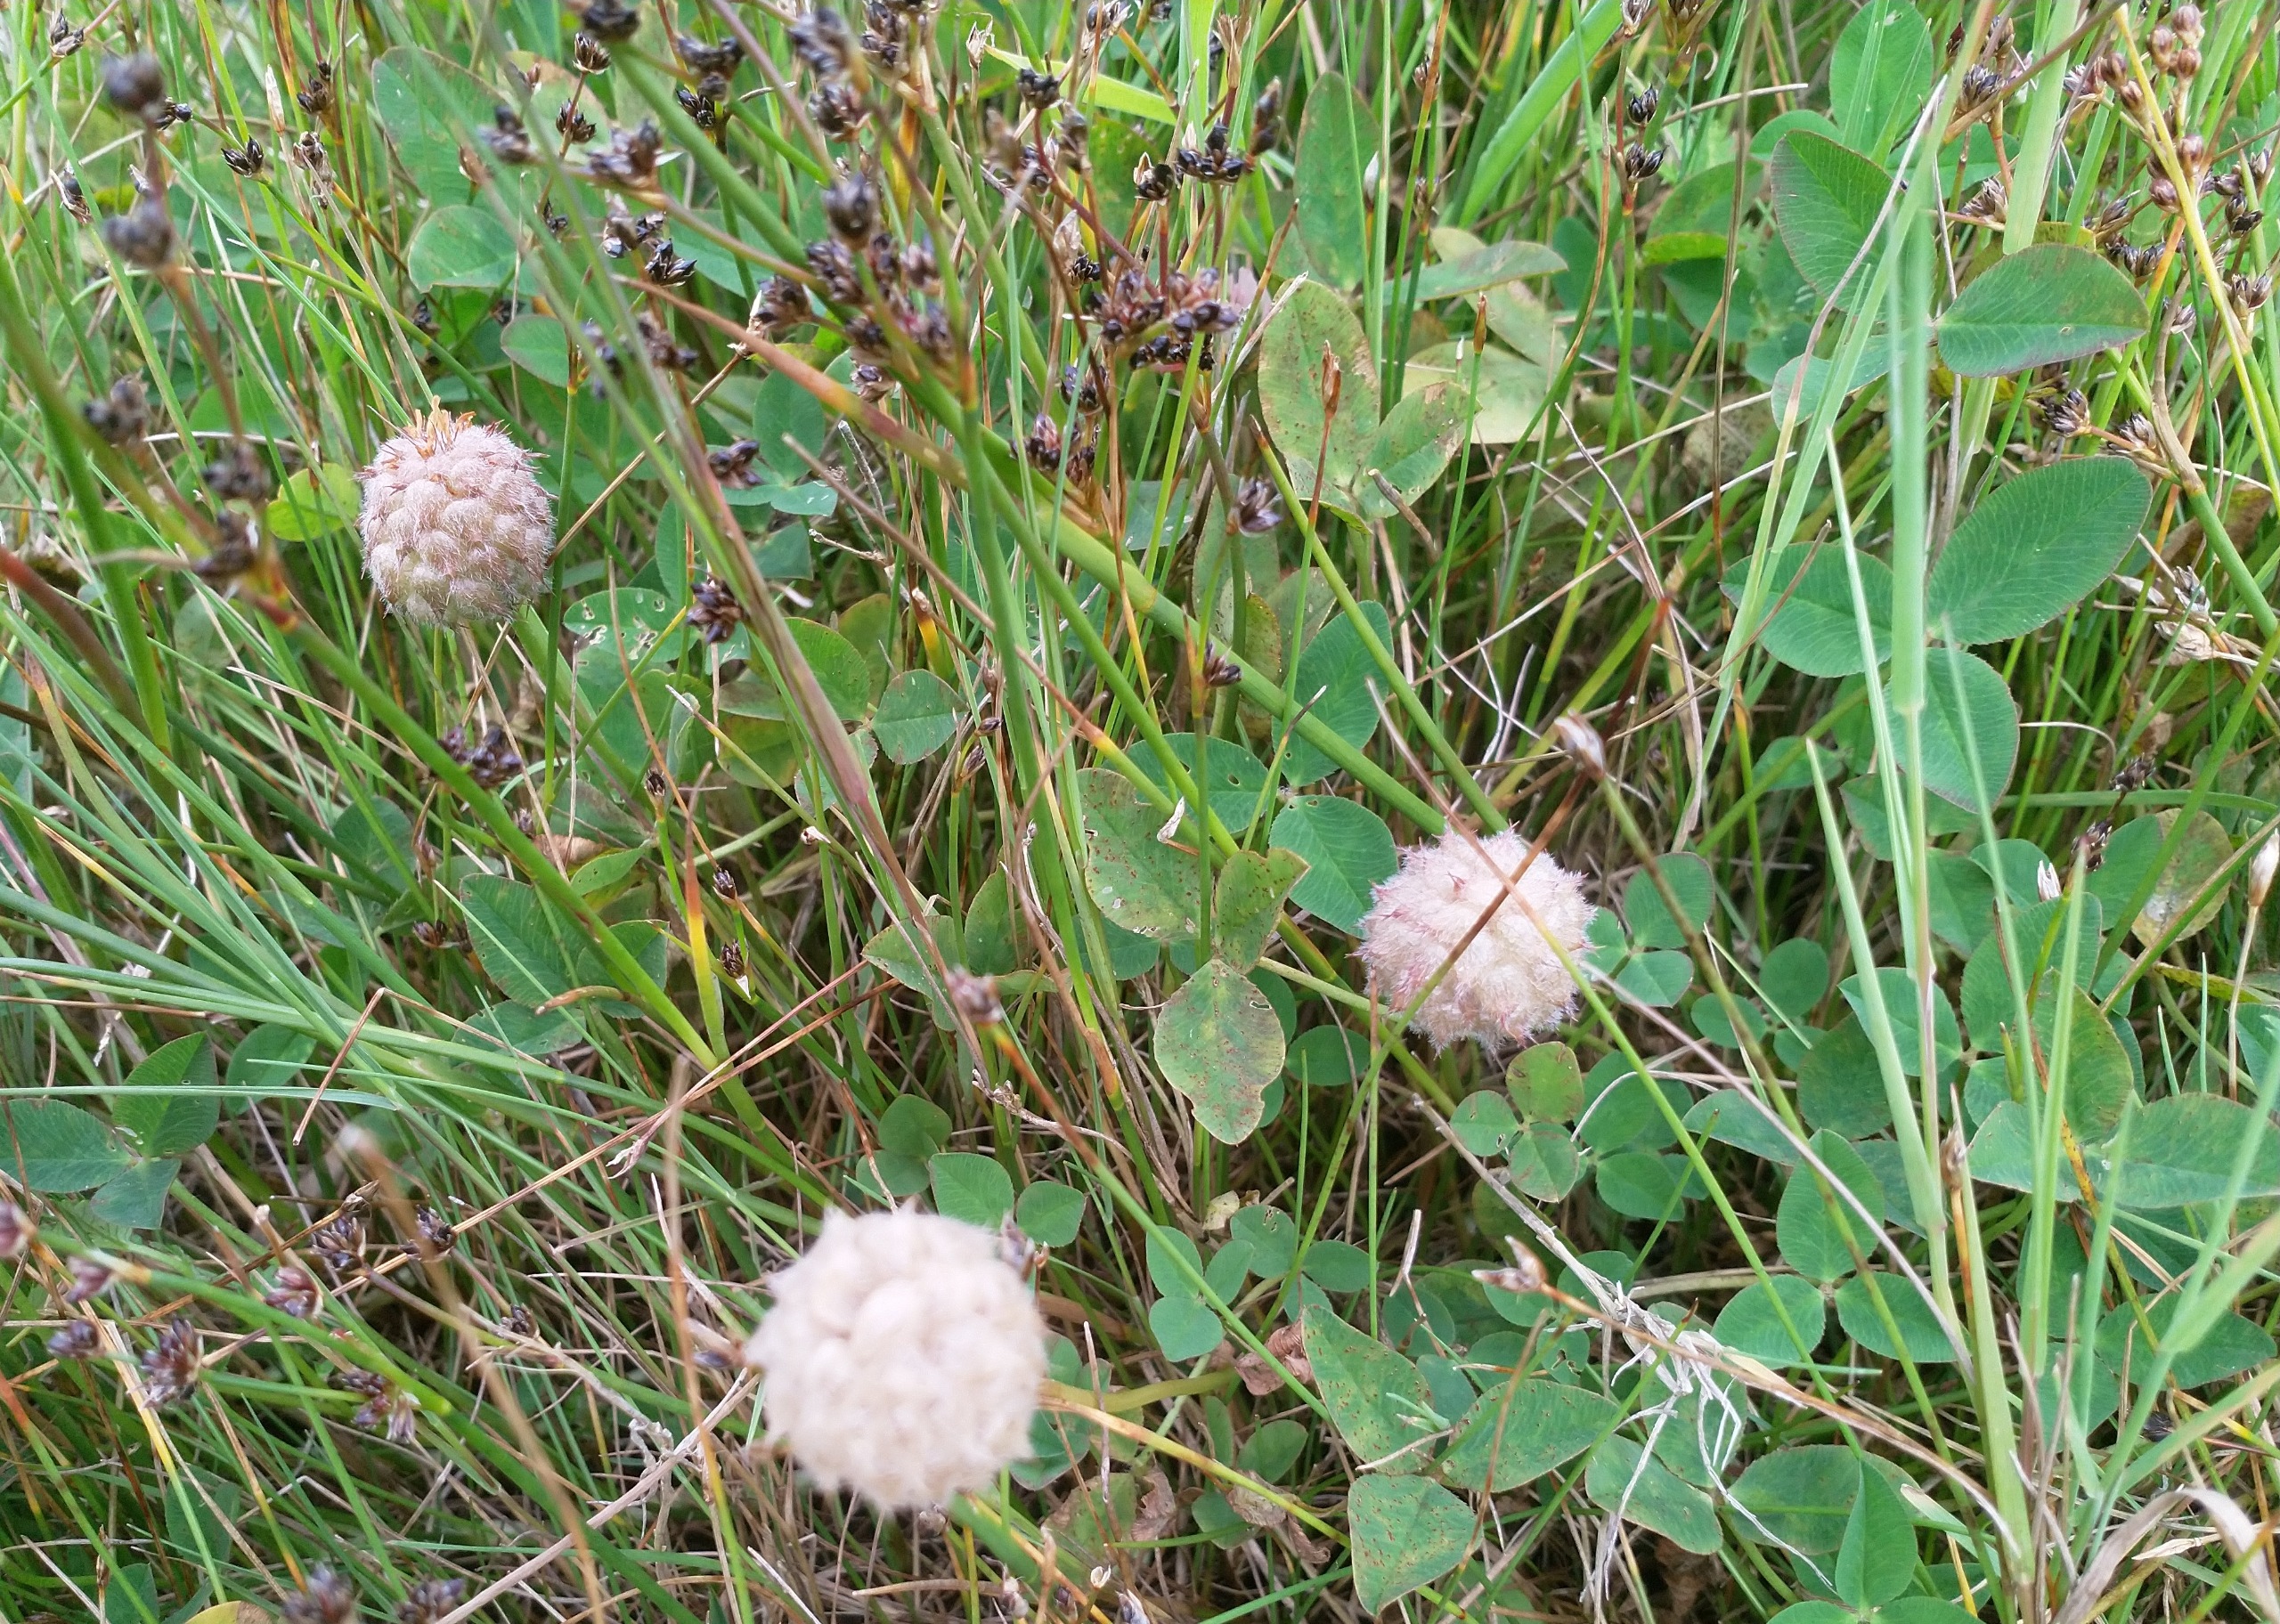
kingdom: Plantae
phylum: Tracheophyta
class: Magnoliopsida
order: Fabales
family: Fabaceae
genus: Trifolium
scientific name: Trifolium fragiferum
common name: Jordbær-kløver
